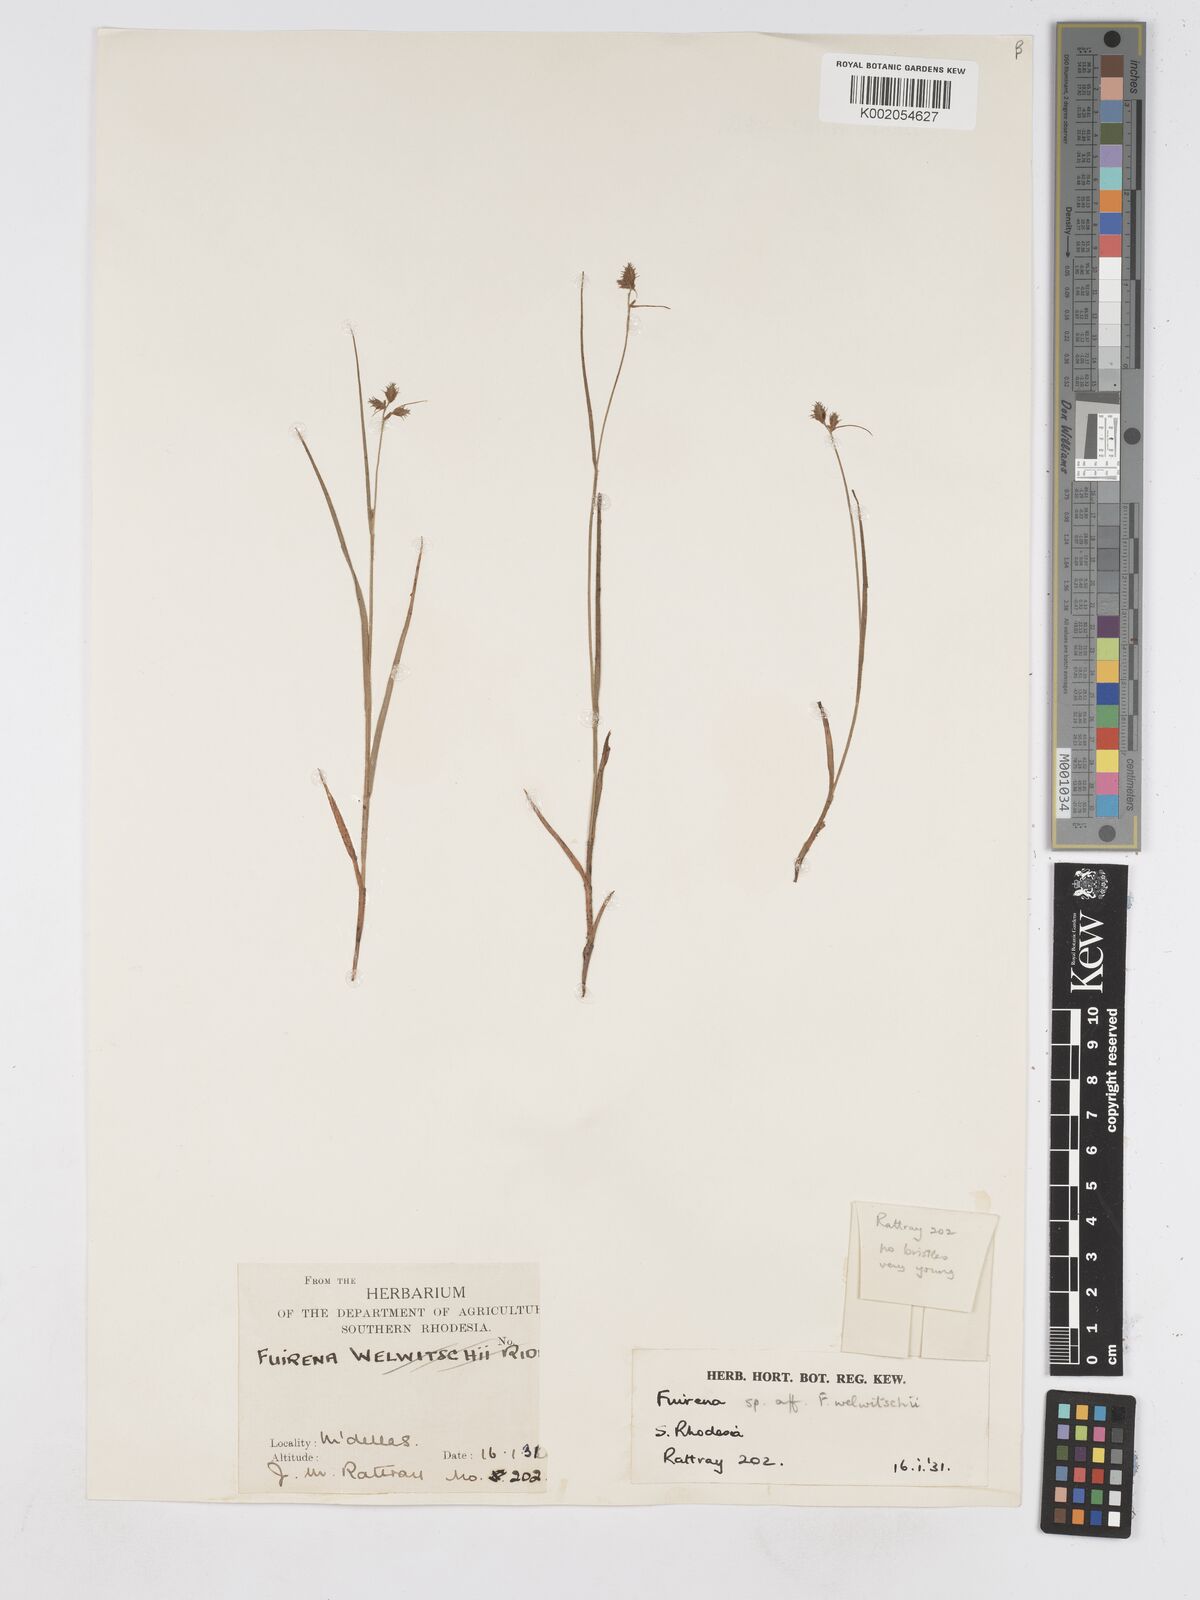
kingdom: Plantae
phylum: Tracheophyta
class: Liliopsida
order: Poales
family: Cyperaceae
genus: Fuirena
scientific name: Fuirena welwitschii
